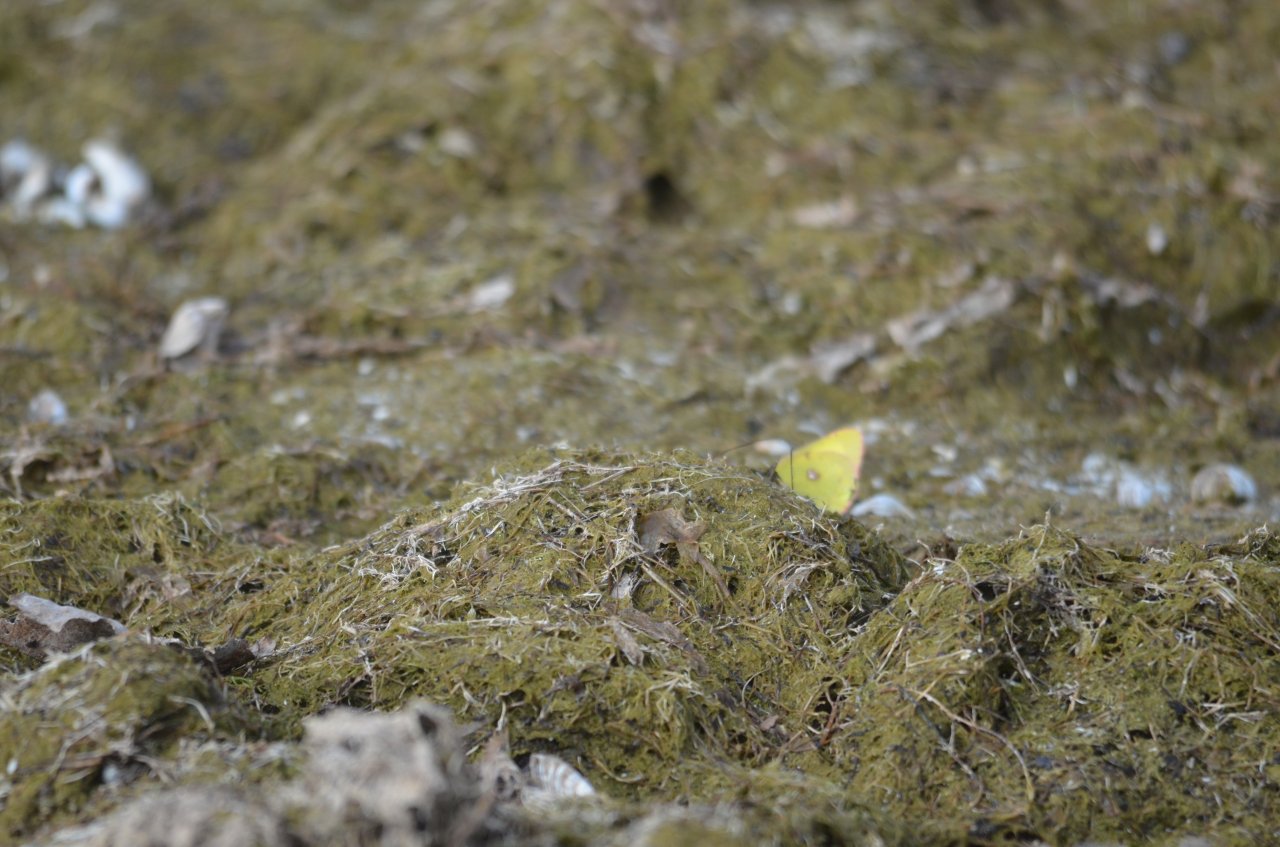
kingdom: Animalia
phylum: Arthropoda
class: Insecta
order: Lepidoptera
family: Pieridae
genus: Colias
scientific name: Colias philodice
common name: Clouded Sulphur
